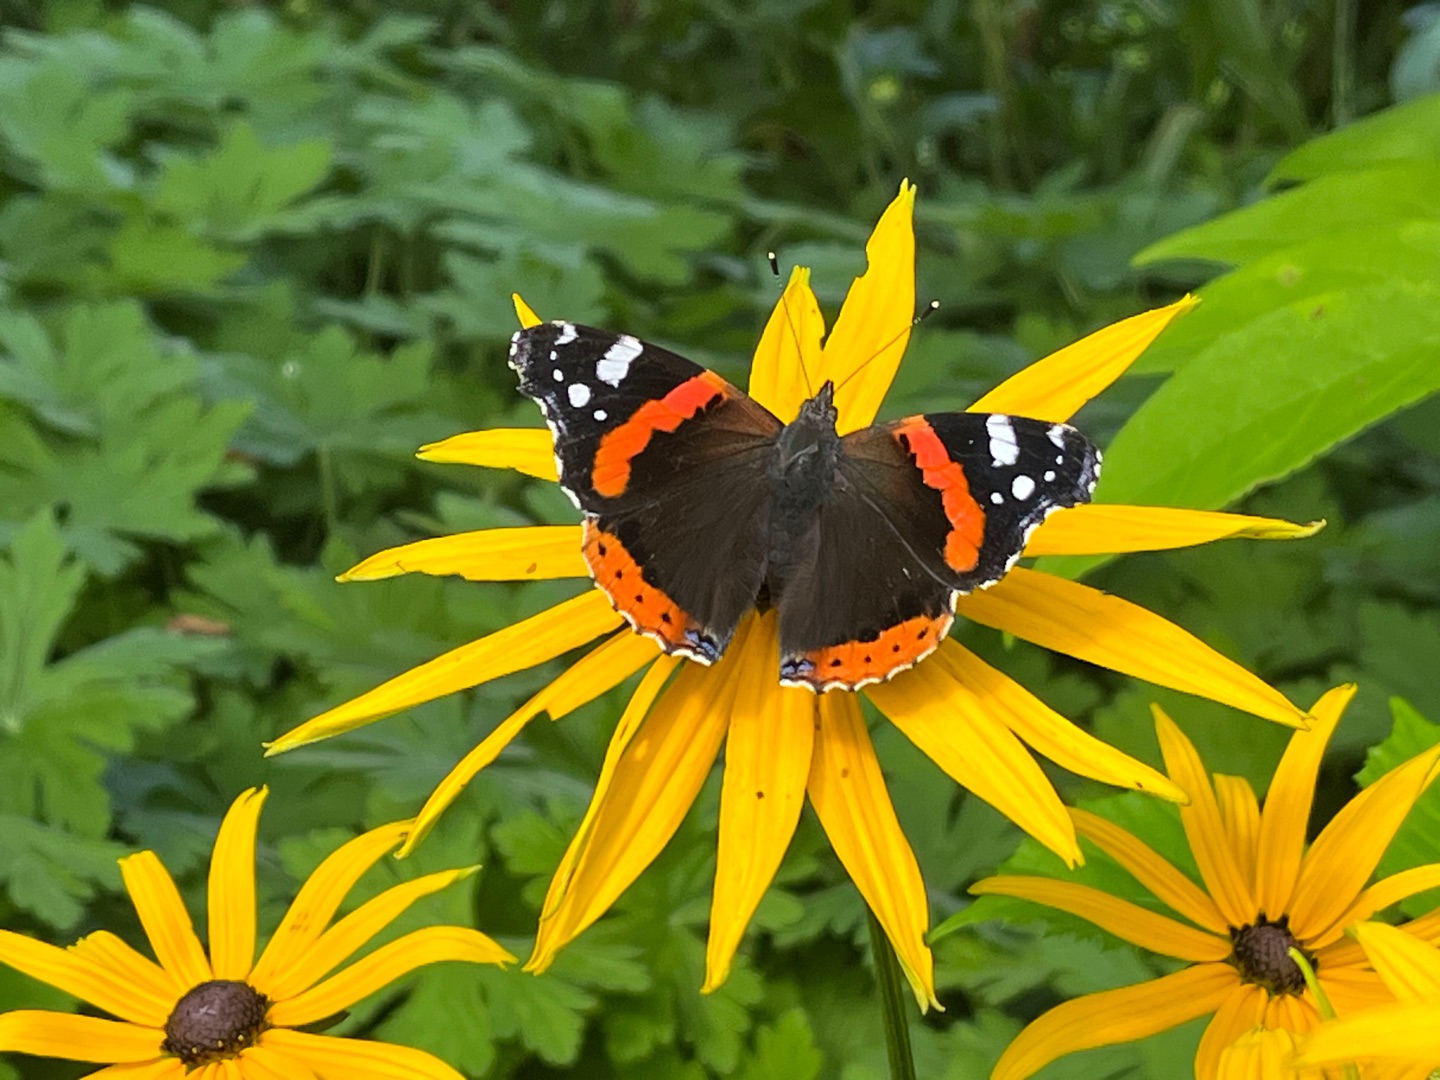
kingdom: Animalia
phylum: Arthropoda
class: Insecta
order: Lepidoptera
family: Nymphalidae
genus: Vanessa
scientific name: Vanessa atalanta
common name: Admiral
